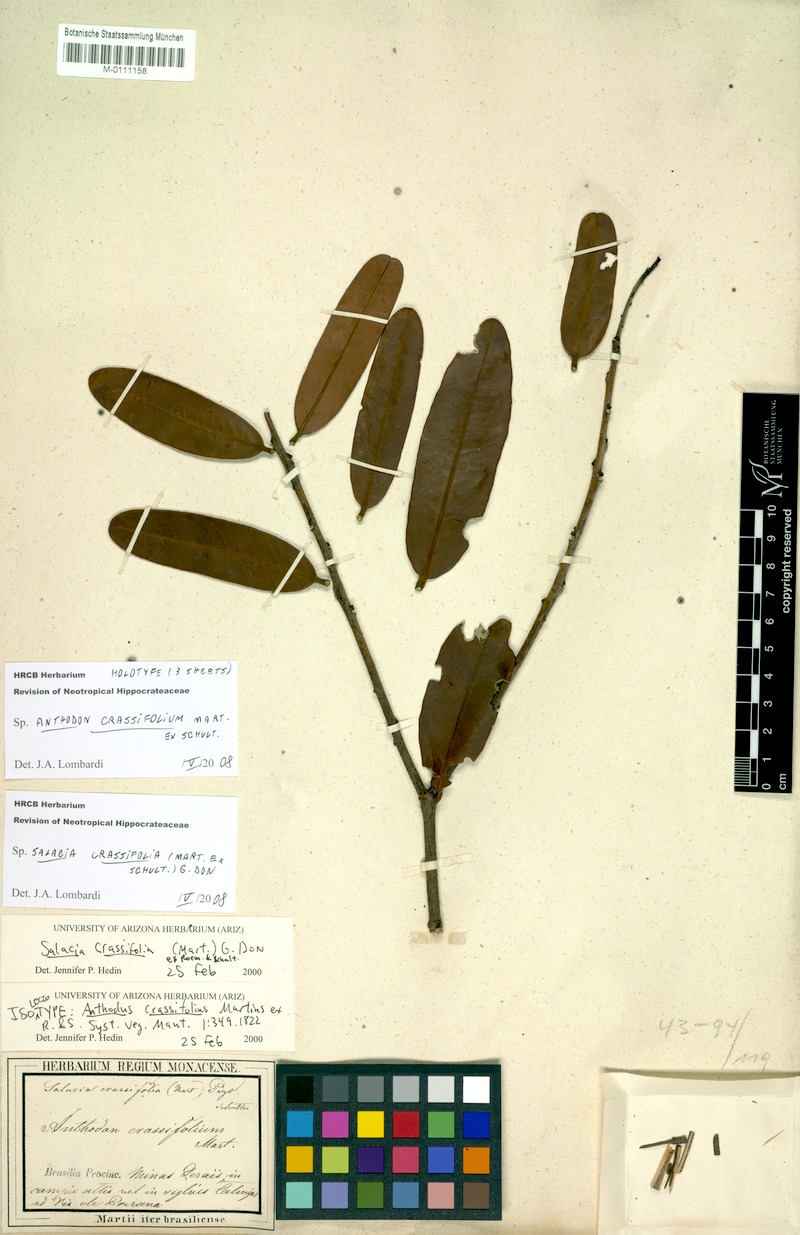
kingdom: Plantae
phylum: Tracheophyta
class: Magnoliopsida
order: Celastrales
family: Celastraceae
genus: Salacia
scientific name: Salacia crassifolia
